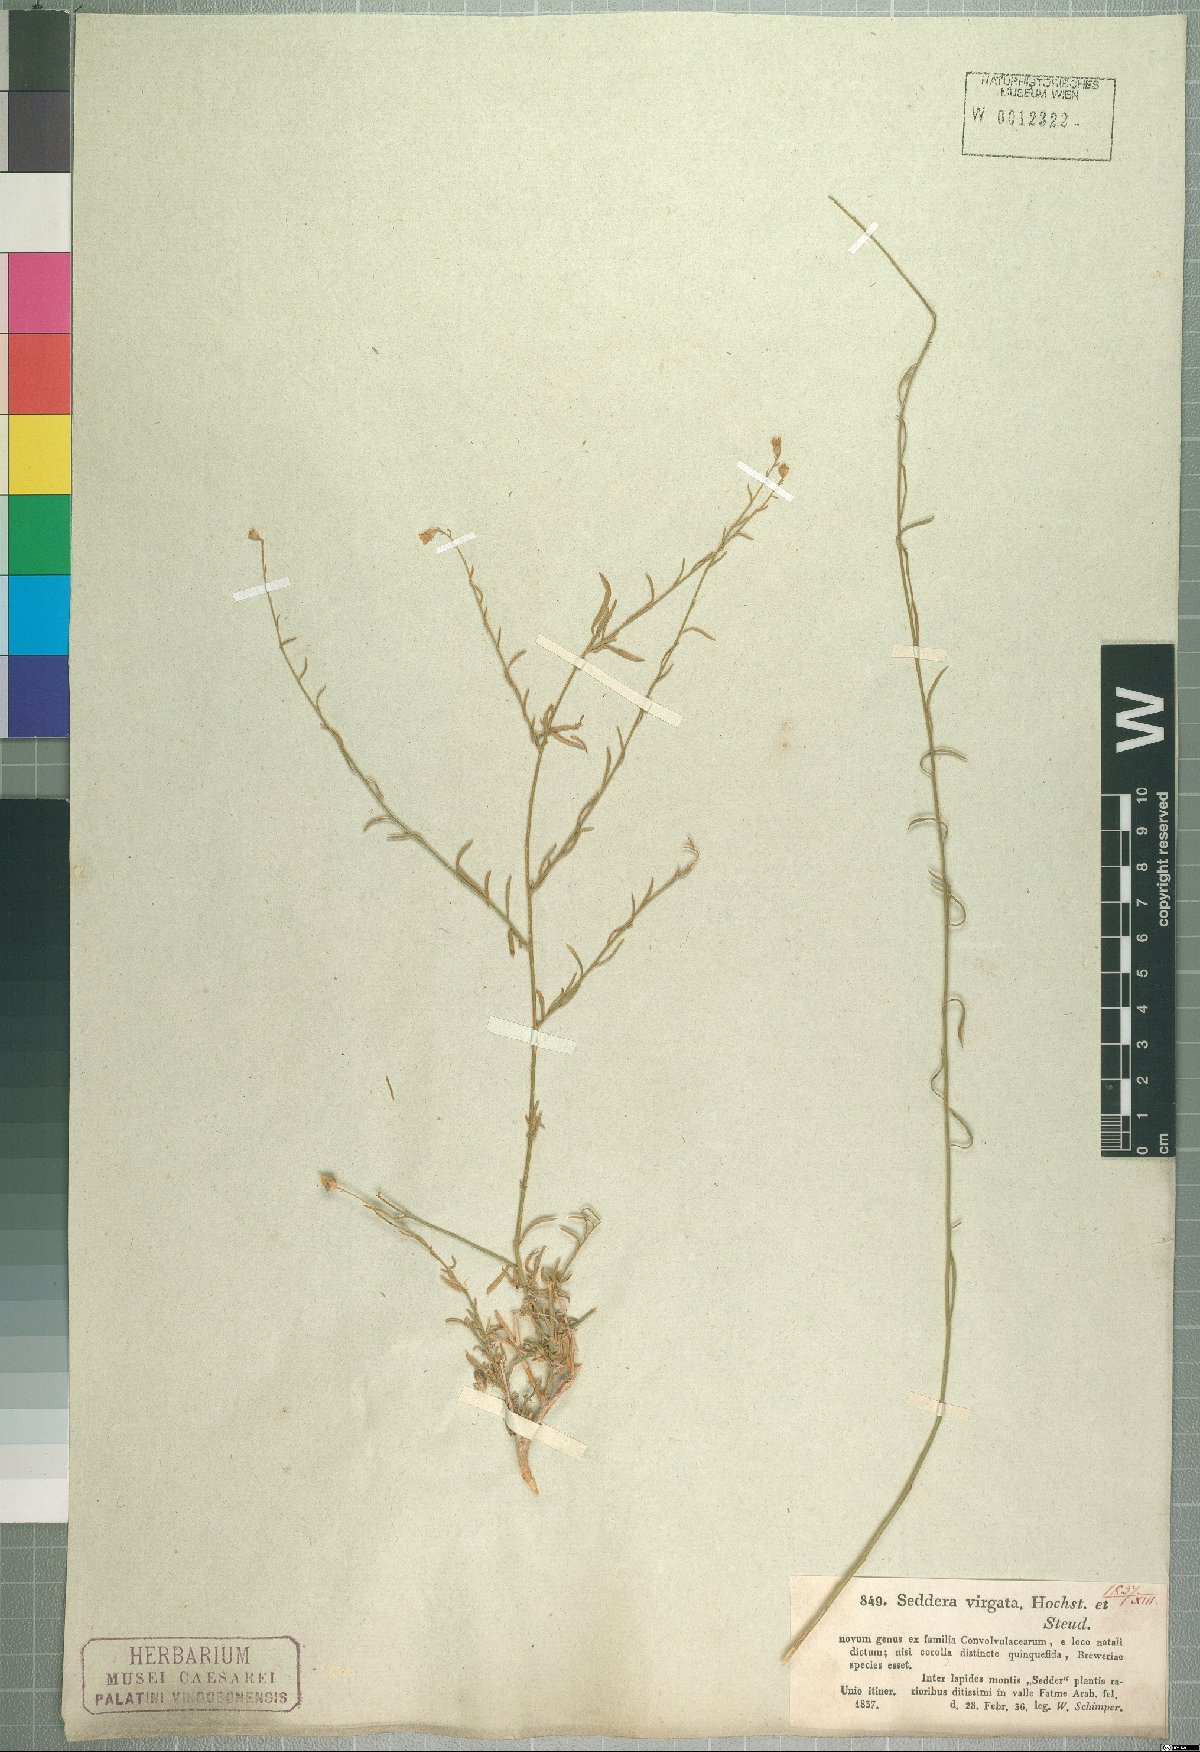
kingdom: Plantae
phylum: Tracheophyta
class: Magnoliopsida
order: Solanales
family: Convolvulaceae
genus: Seddera
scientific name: Seddera virgata
